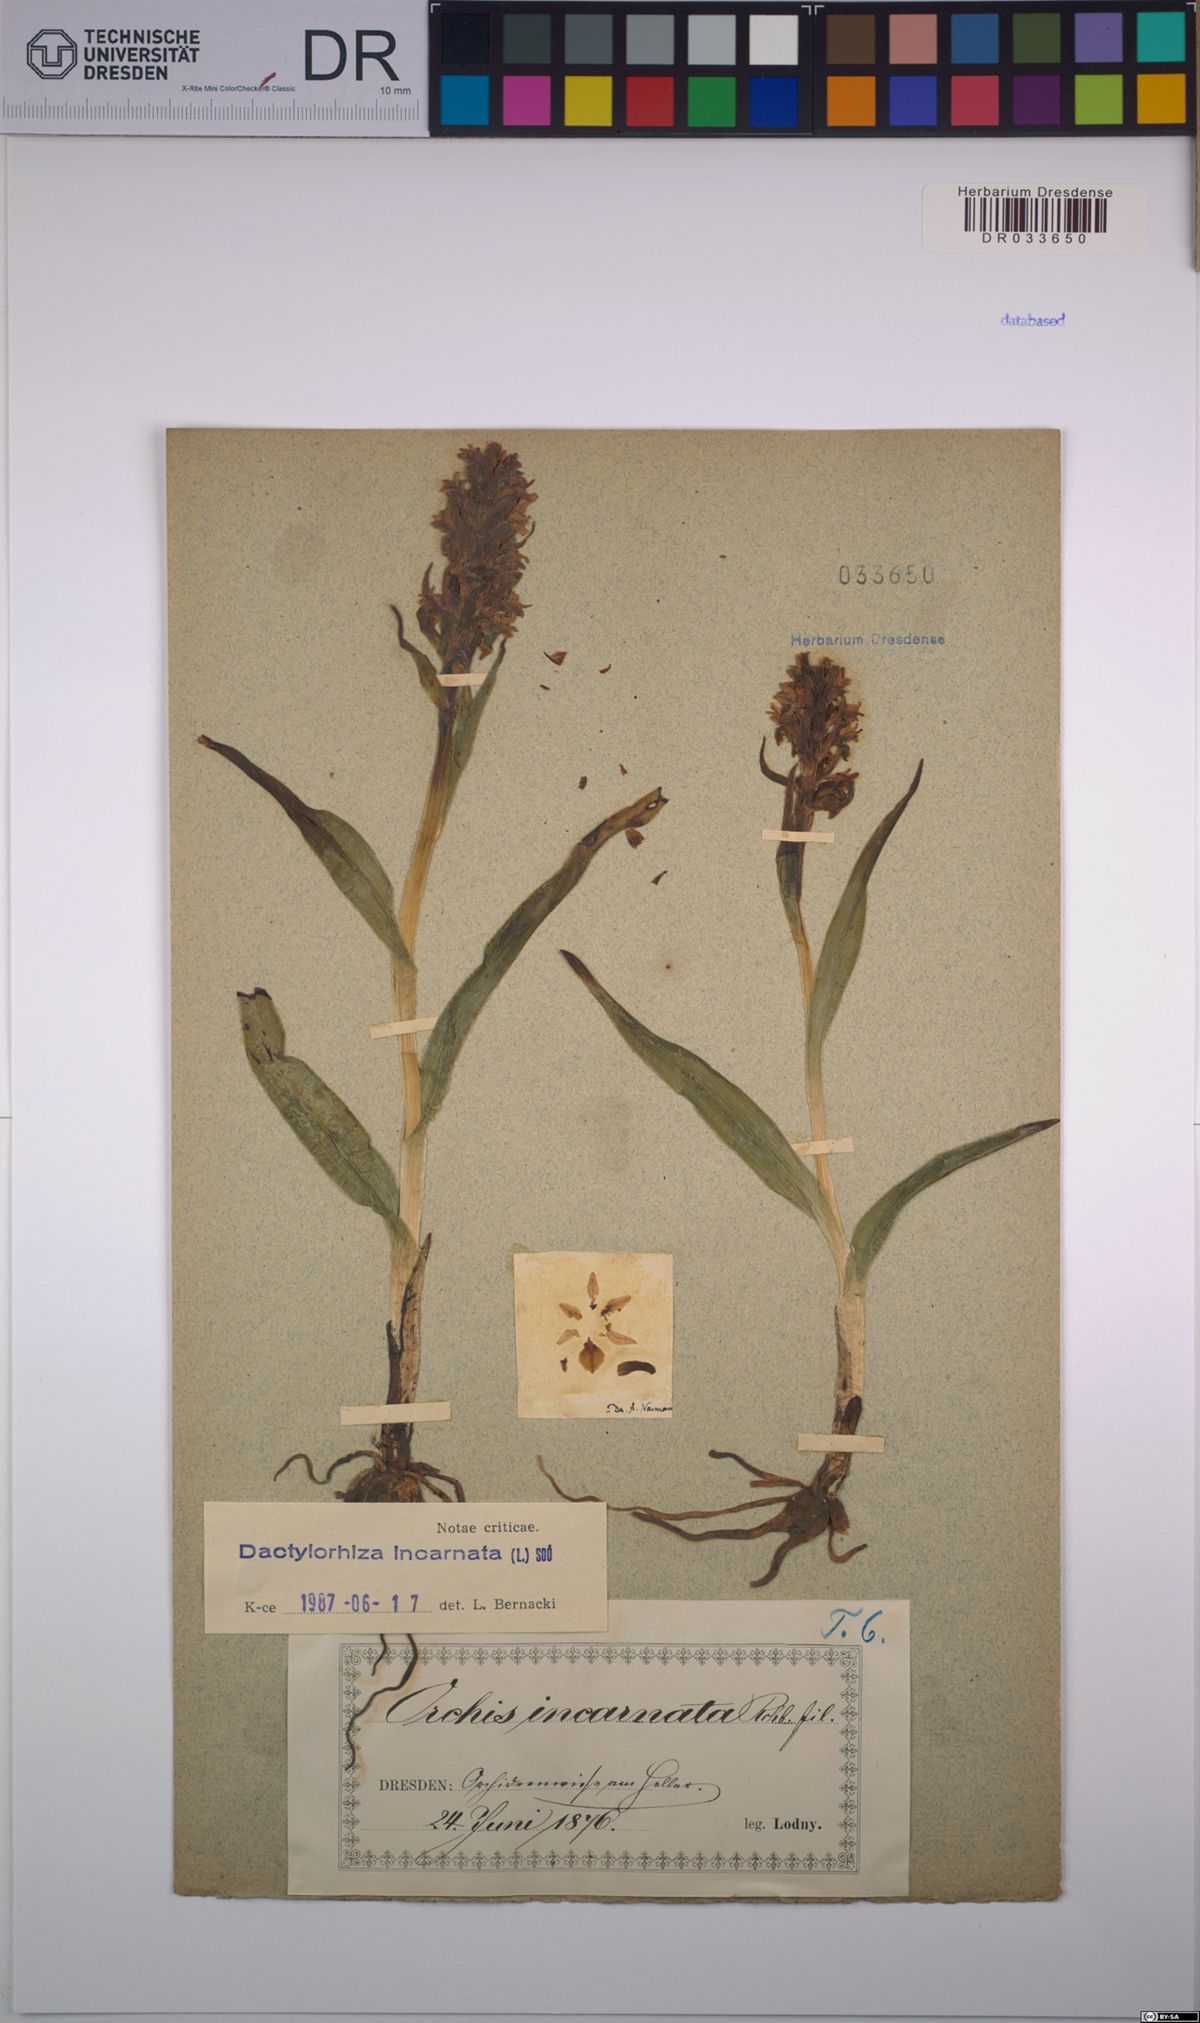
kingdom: Plantae
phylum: Tracheophyta
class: Liliopsida
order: Asparagales
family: Orchidaceae
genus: Dactylorhiza
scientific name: Dactylorhiza incarnata
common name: Early marsh-orchid
